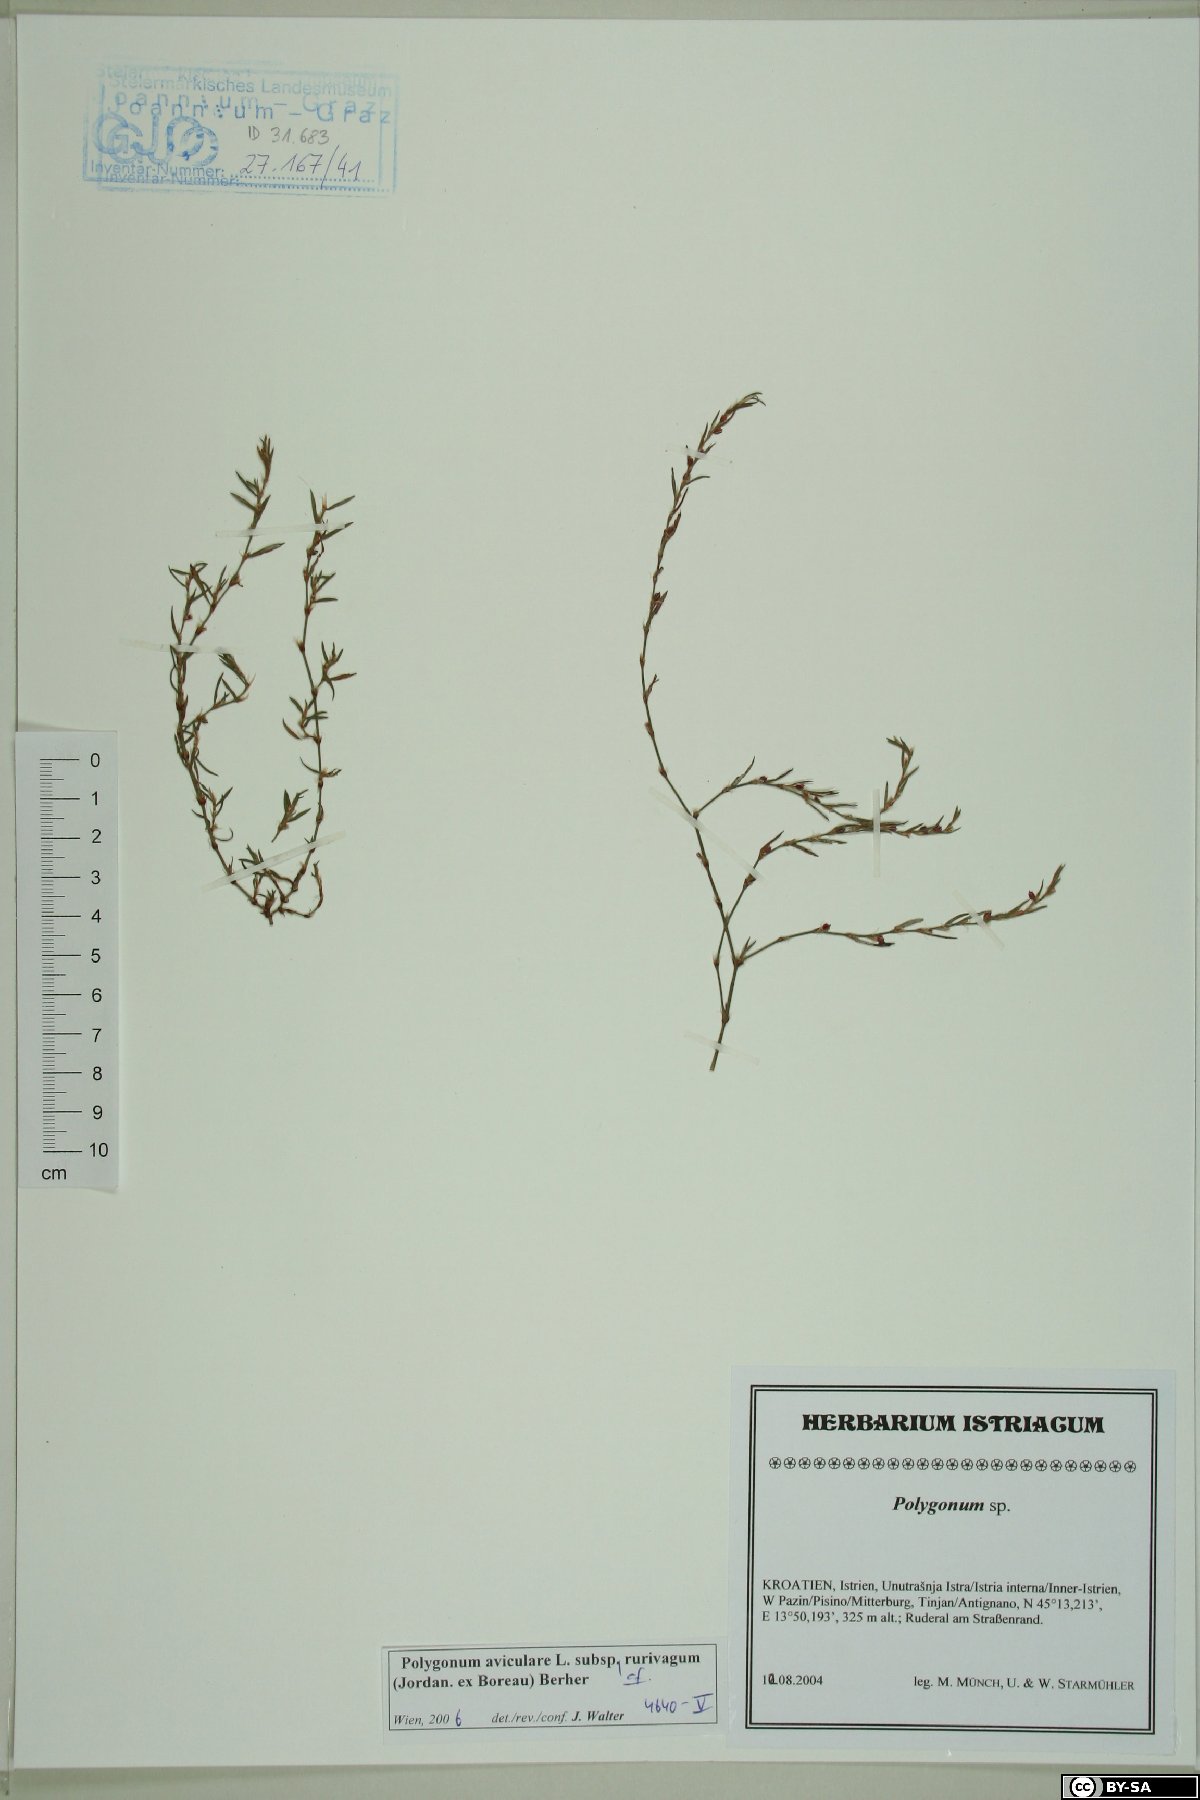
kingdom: Plantae
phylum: Tracheophyta
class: Magnoliopsida
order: Caryophyllales
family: Polygonaceae
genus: Polygonum
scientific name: Polygonum aviculare
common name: Prostrate knotweed
